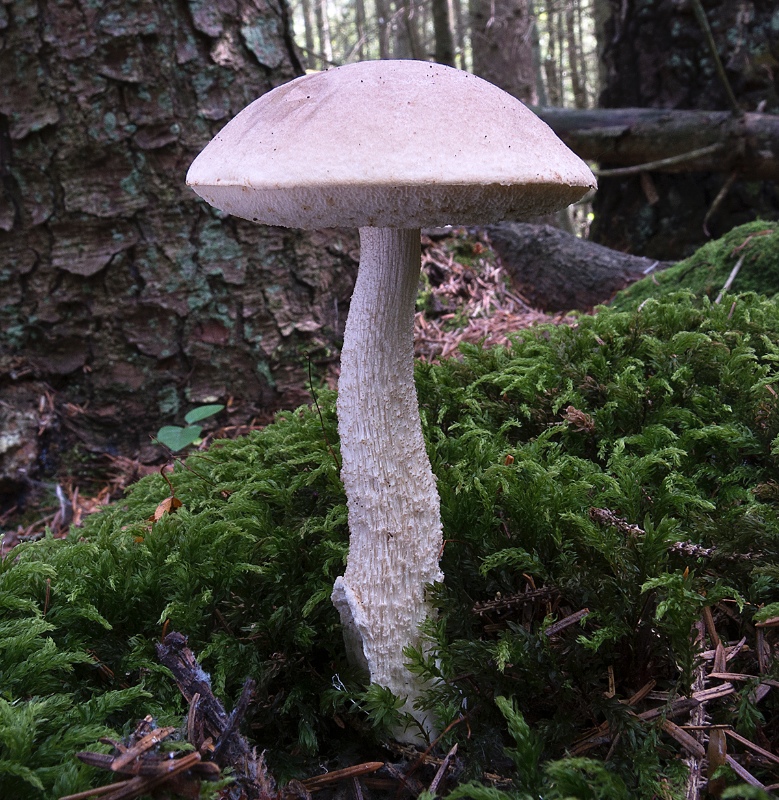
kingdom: Fungi
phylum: Basidiomycota
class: Agaricomycetes
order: Boletales
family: Boletaceae
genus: Leccinum
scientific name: Leccinum cyaneobasileucum
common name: almindelig skælrørhat
